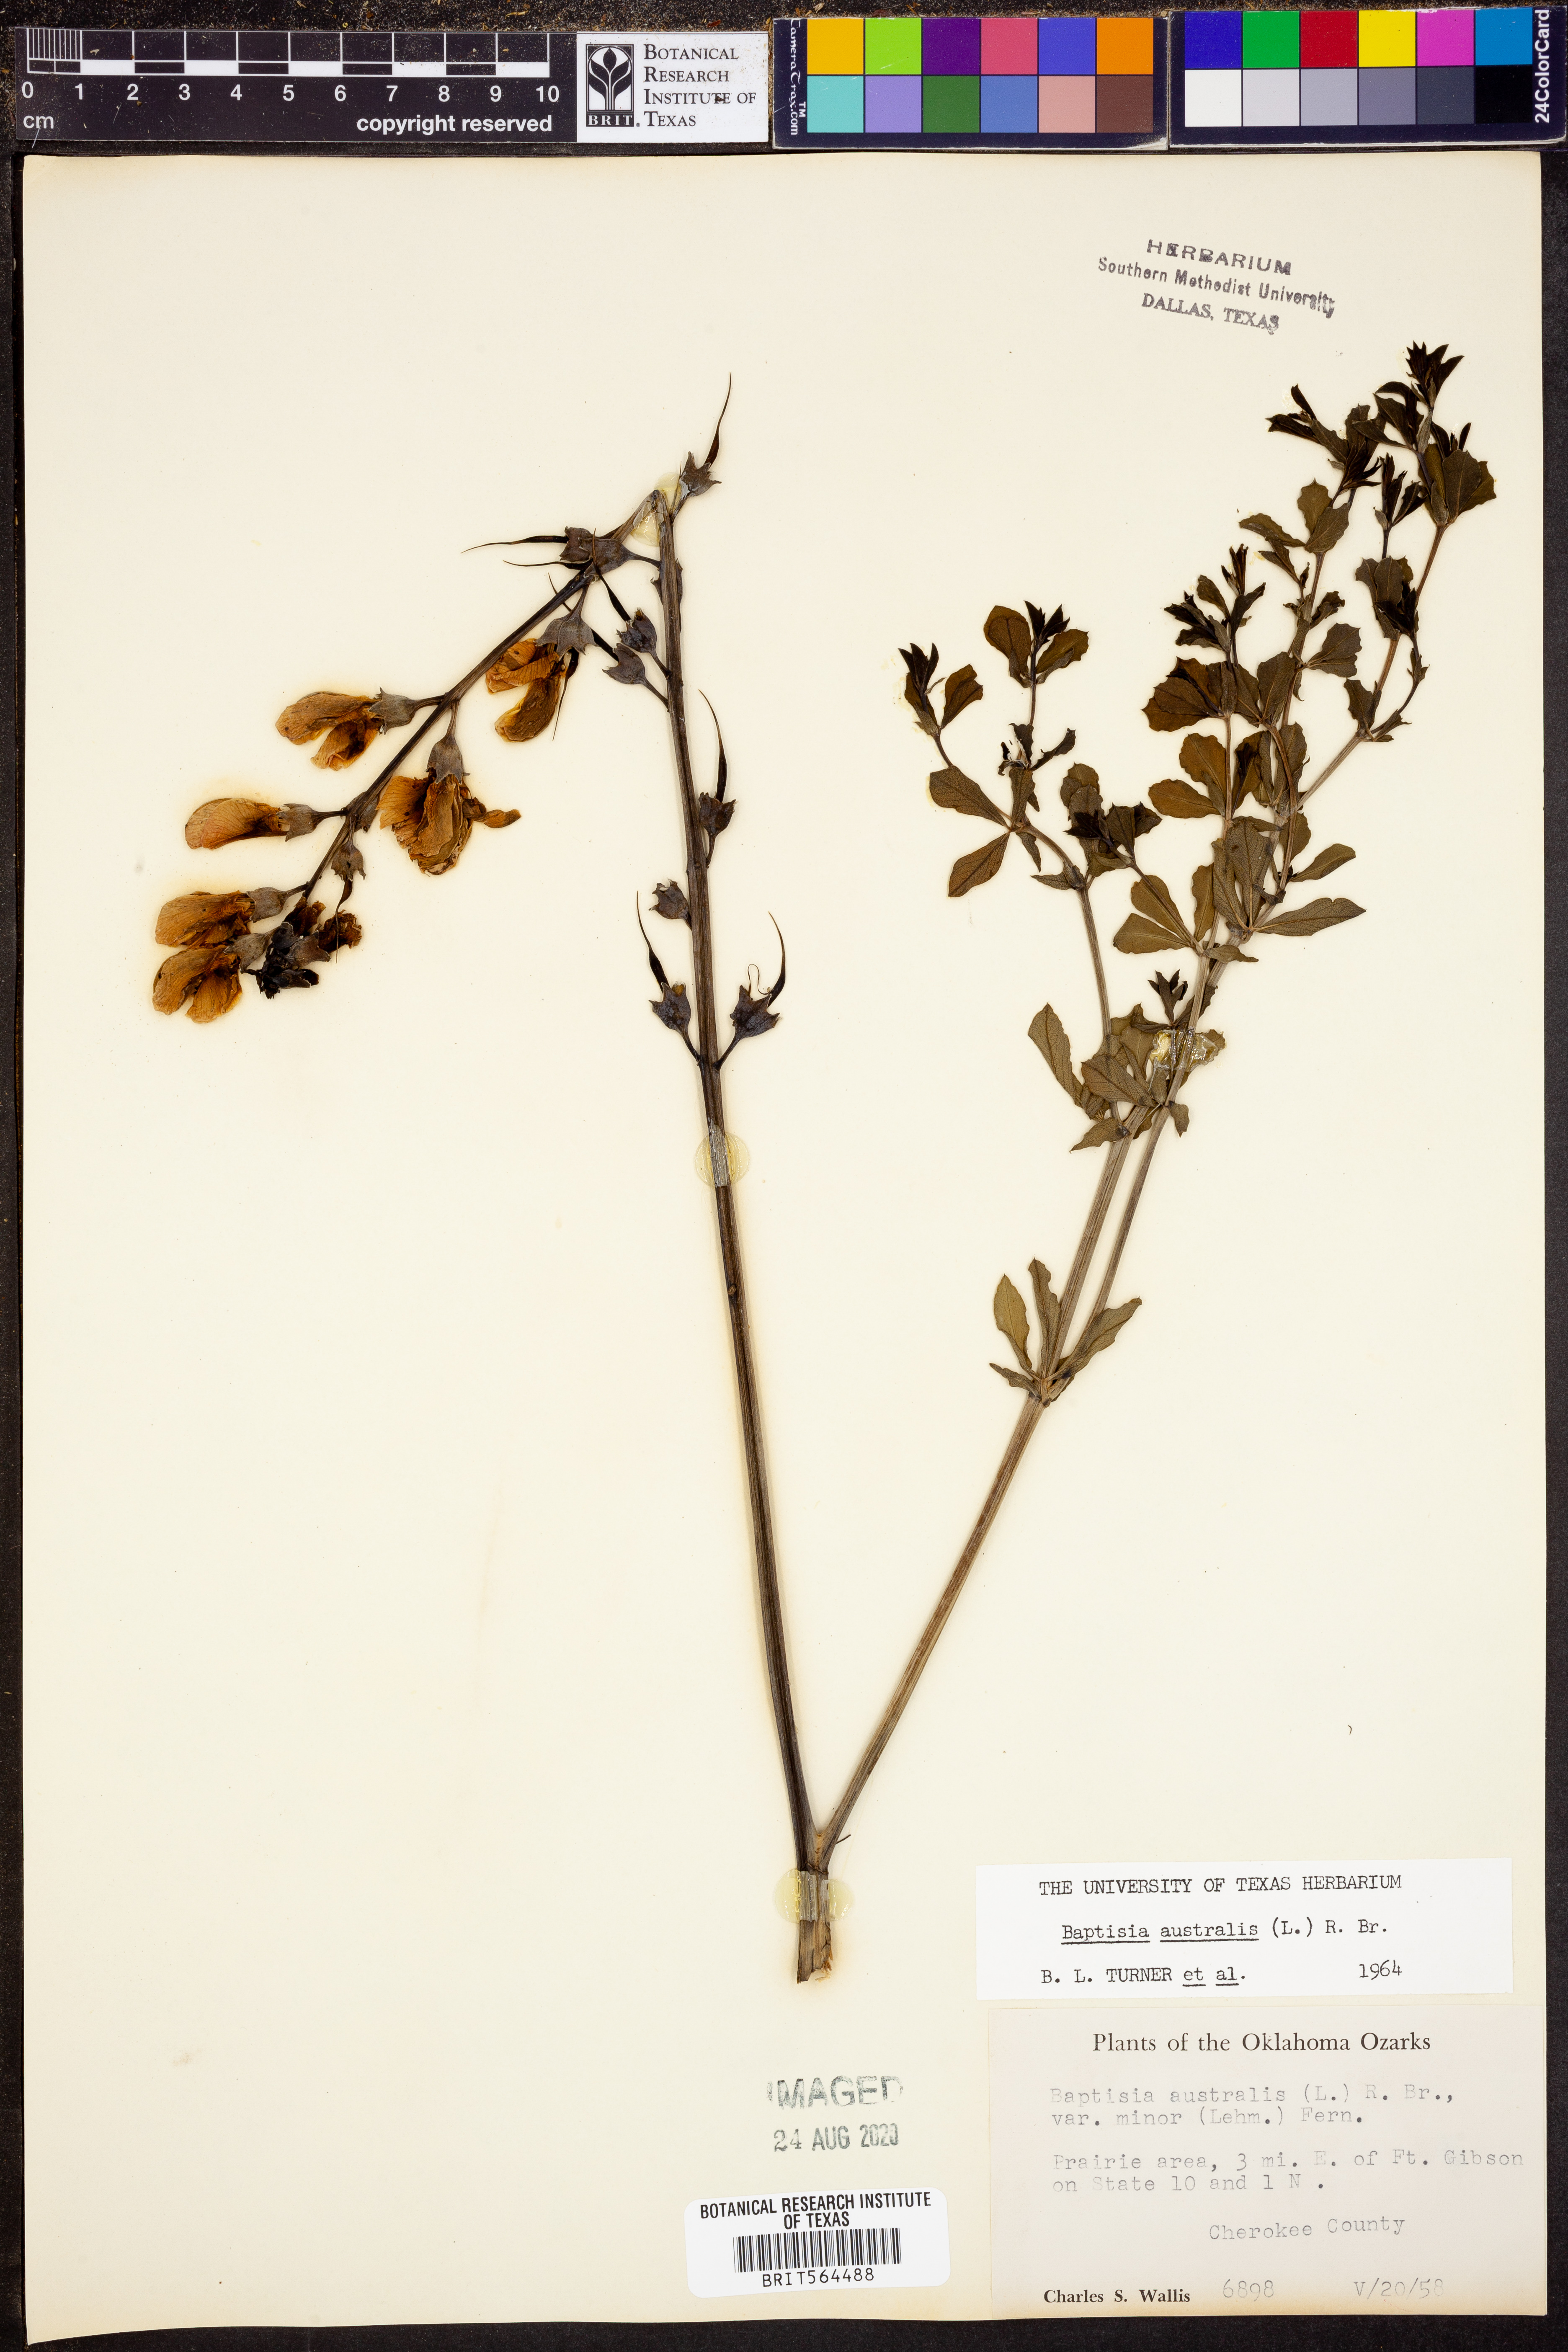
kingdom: Plantae
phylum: Tracheophyta
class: Magnoliopsida
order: Fabales
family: Fabaceae
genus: Baptisia
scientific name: Baptisia australis
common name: Blue false indigo
